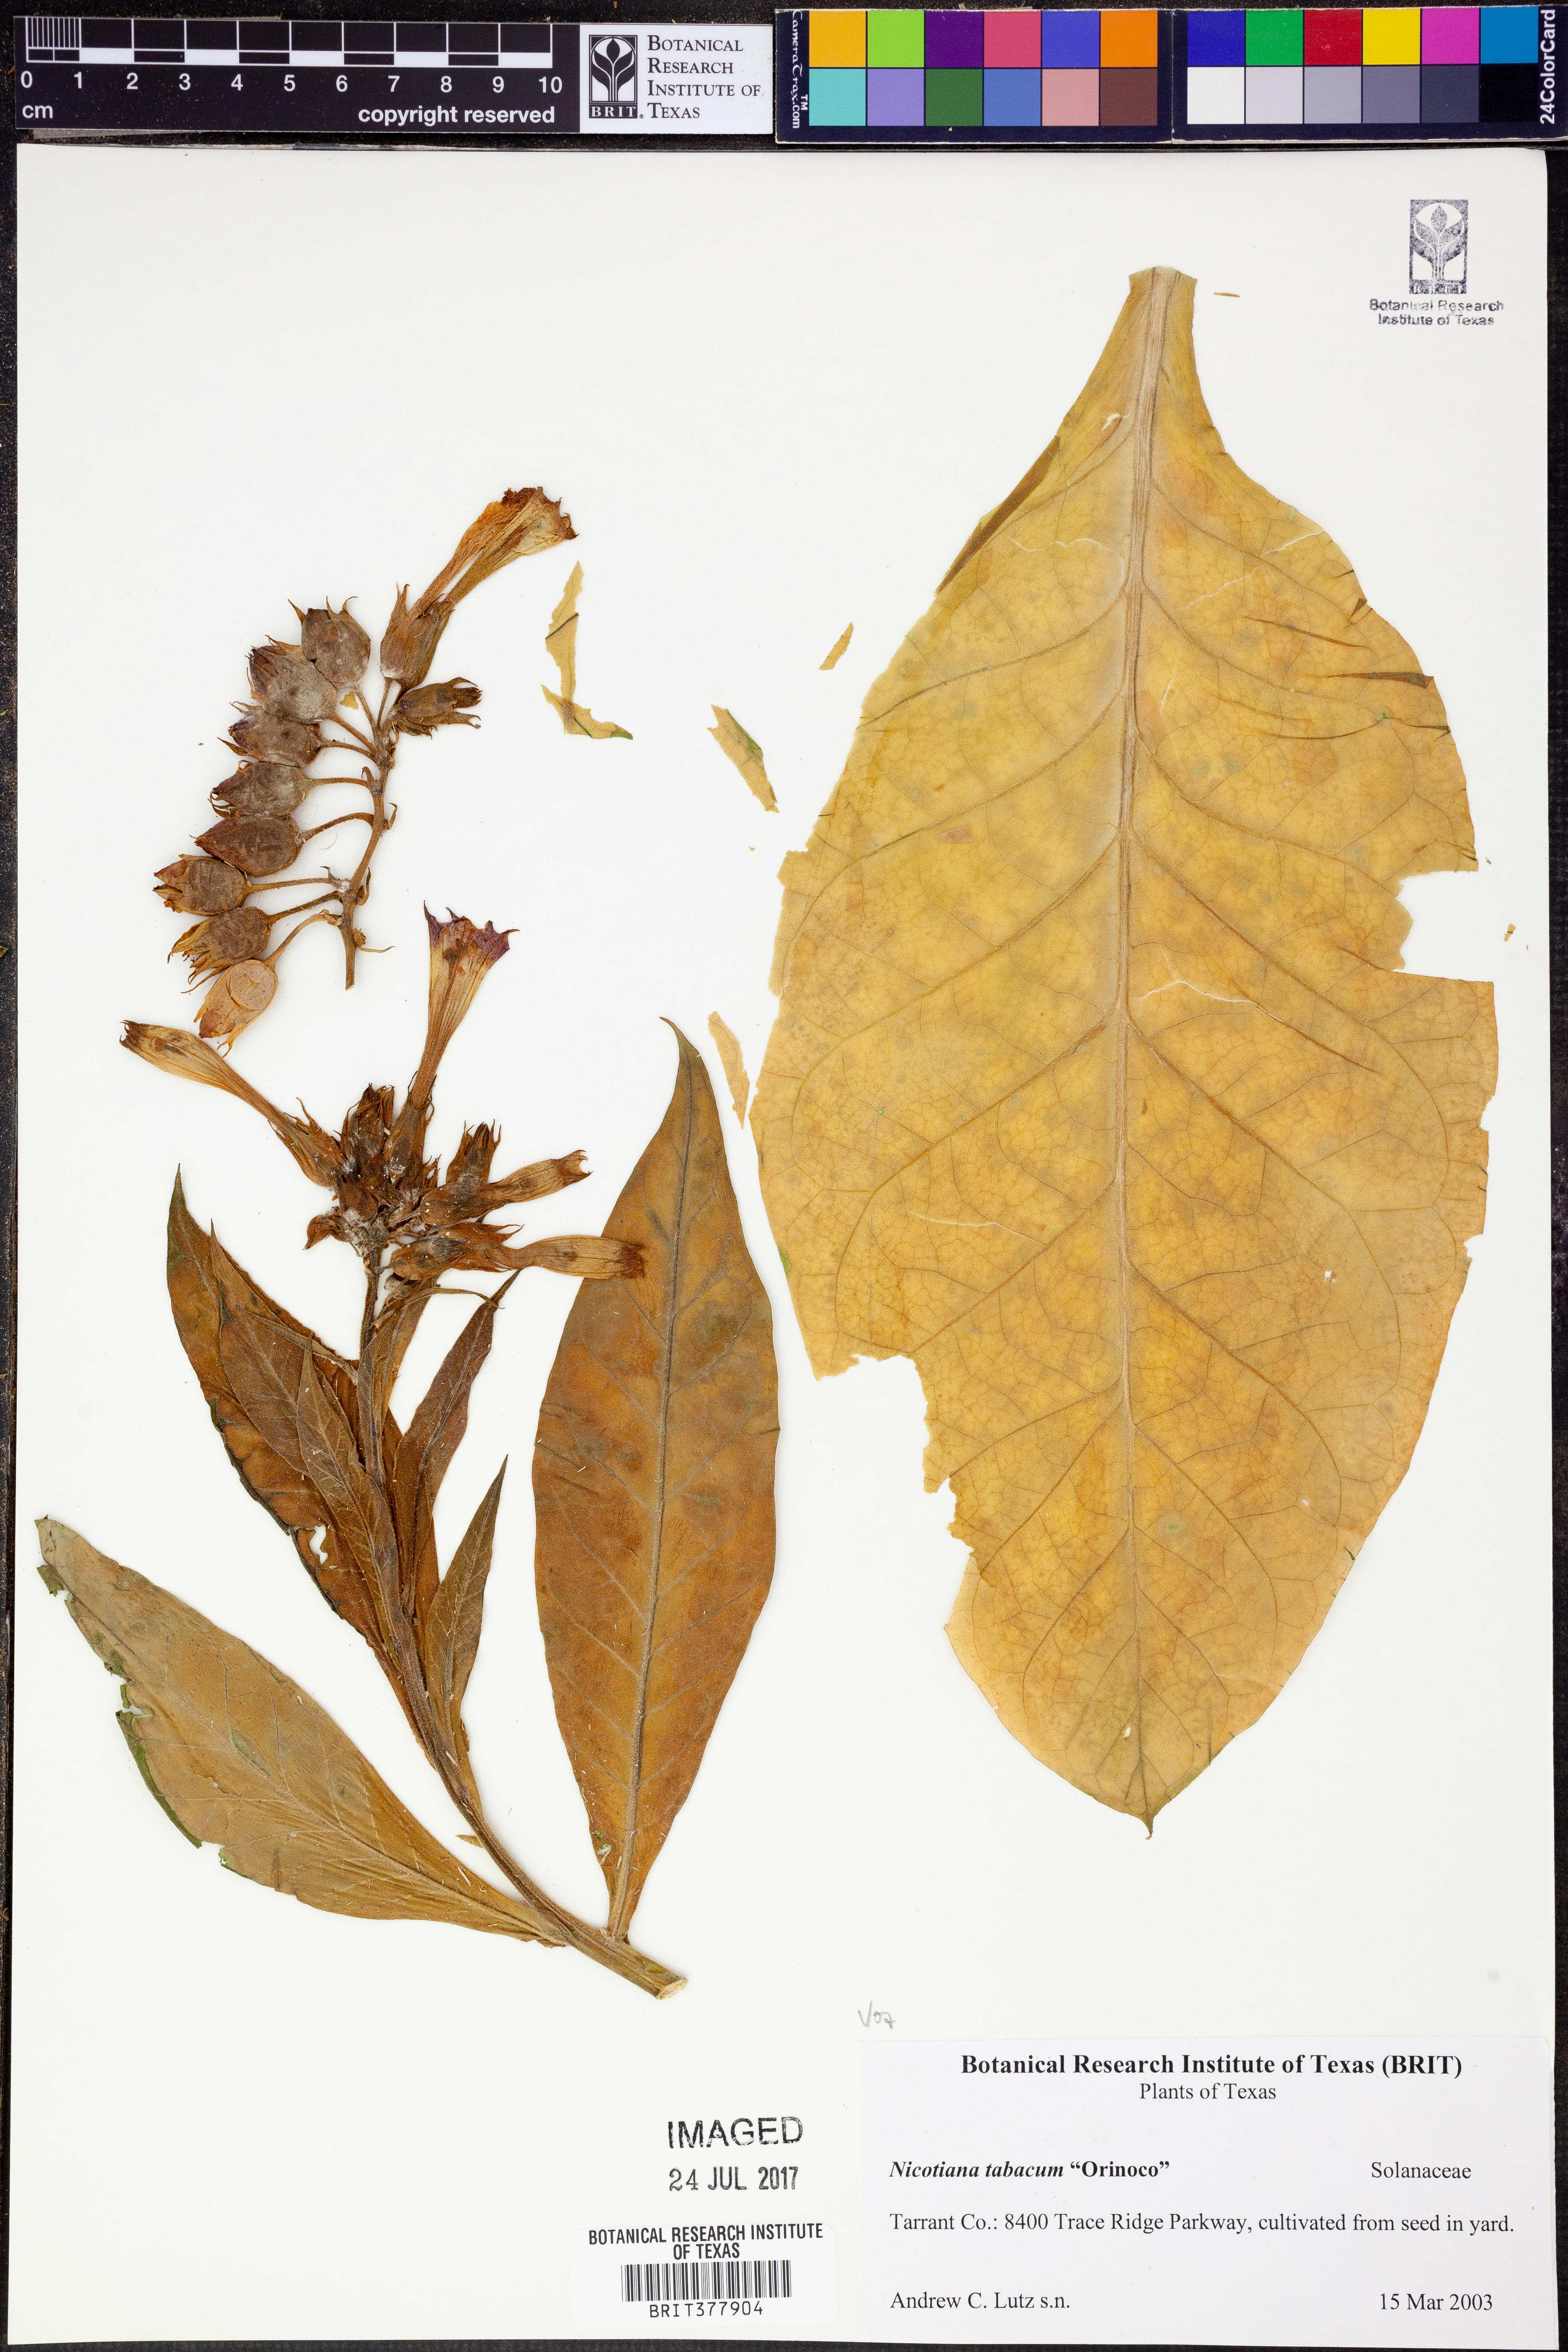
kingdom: Plantae
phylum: Tracheophyta
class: Magnoliopsida
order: Solanales
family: Solanaceae
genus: Nicotiana
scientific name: Nicotiana tabacum
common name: Tobacco
